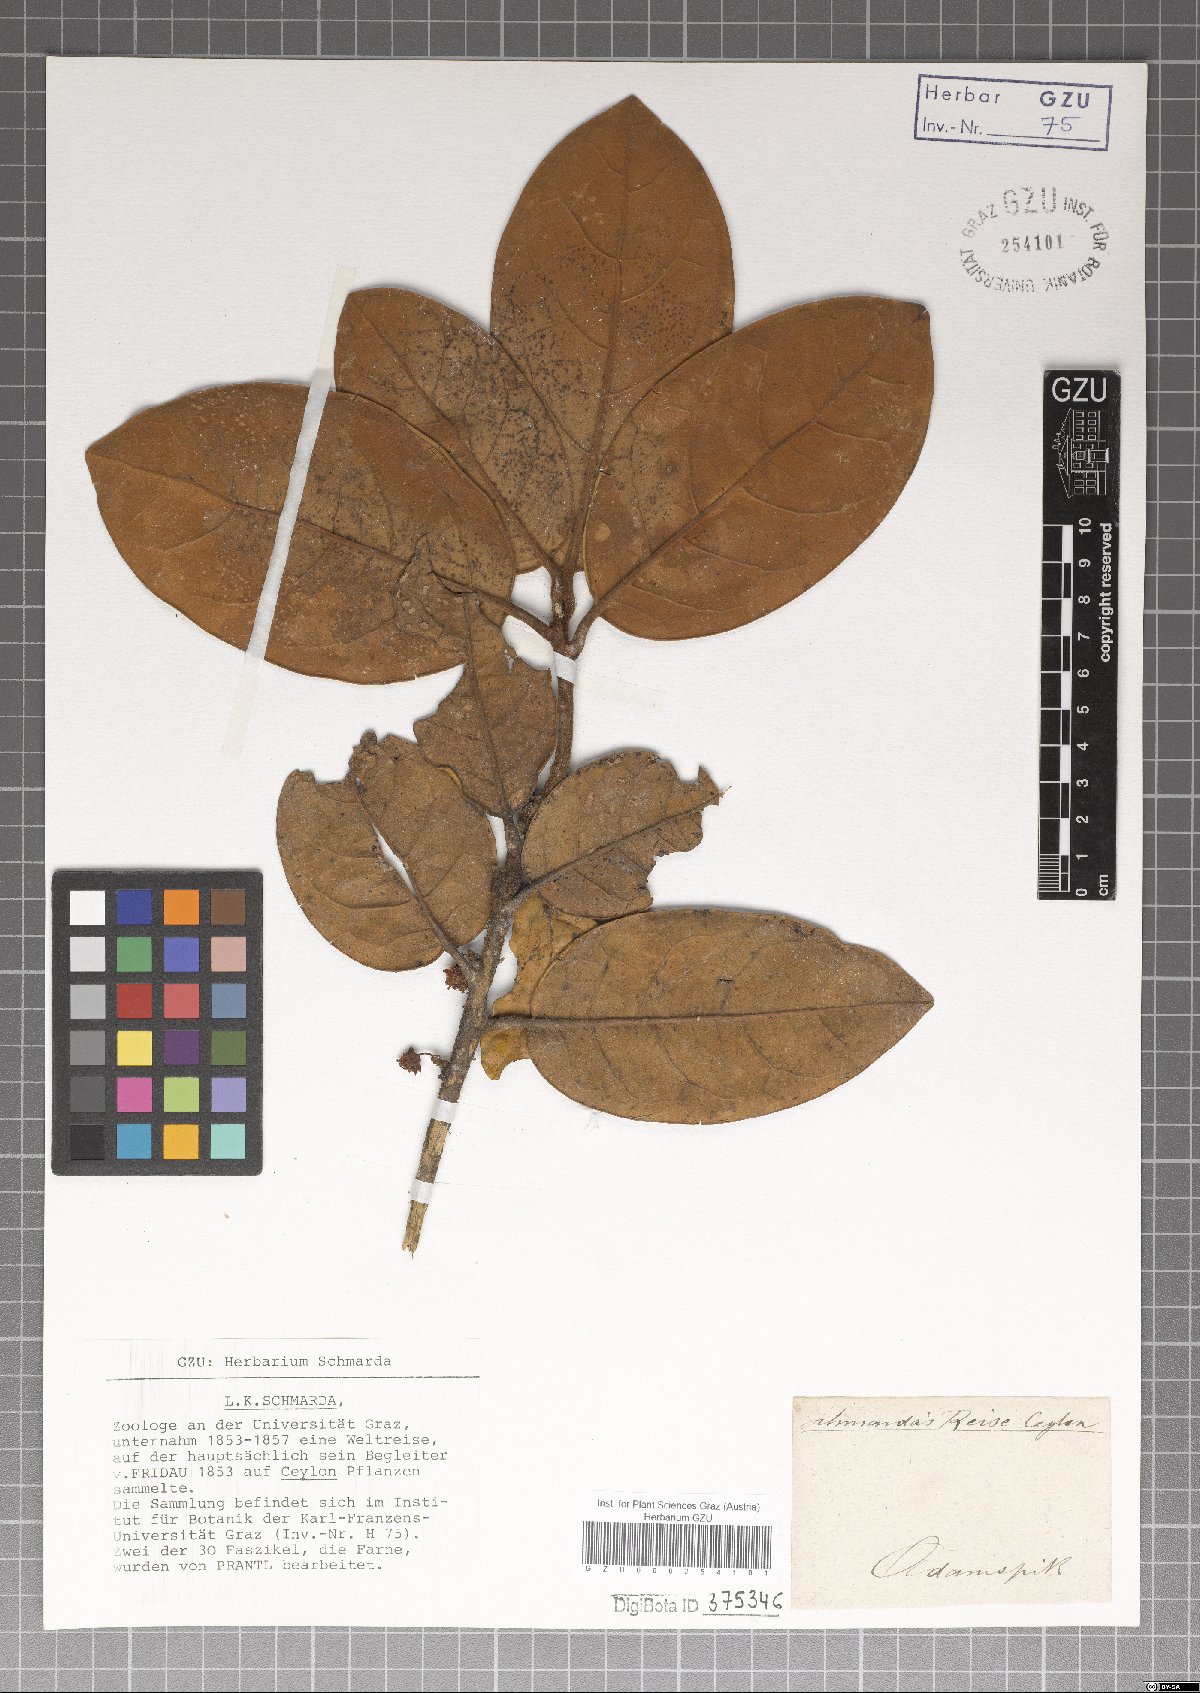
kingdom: Plantae
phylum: Tracheophyta
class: Magnoliopsida
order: Laurales
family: Lauraceae
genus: Litsea
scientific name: Litsea
